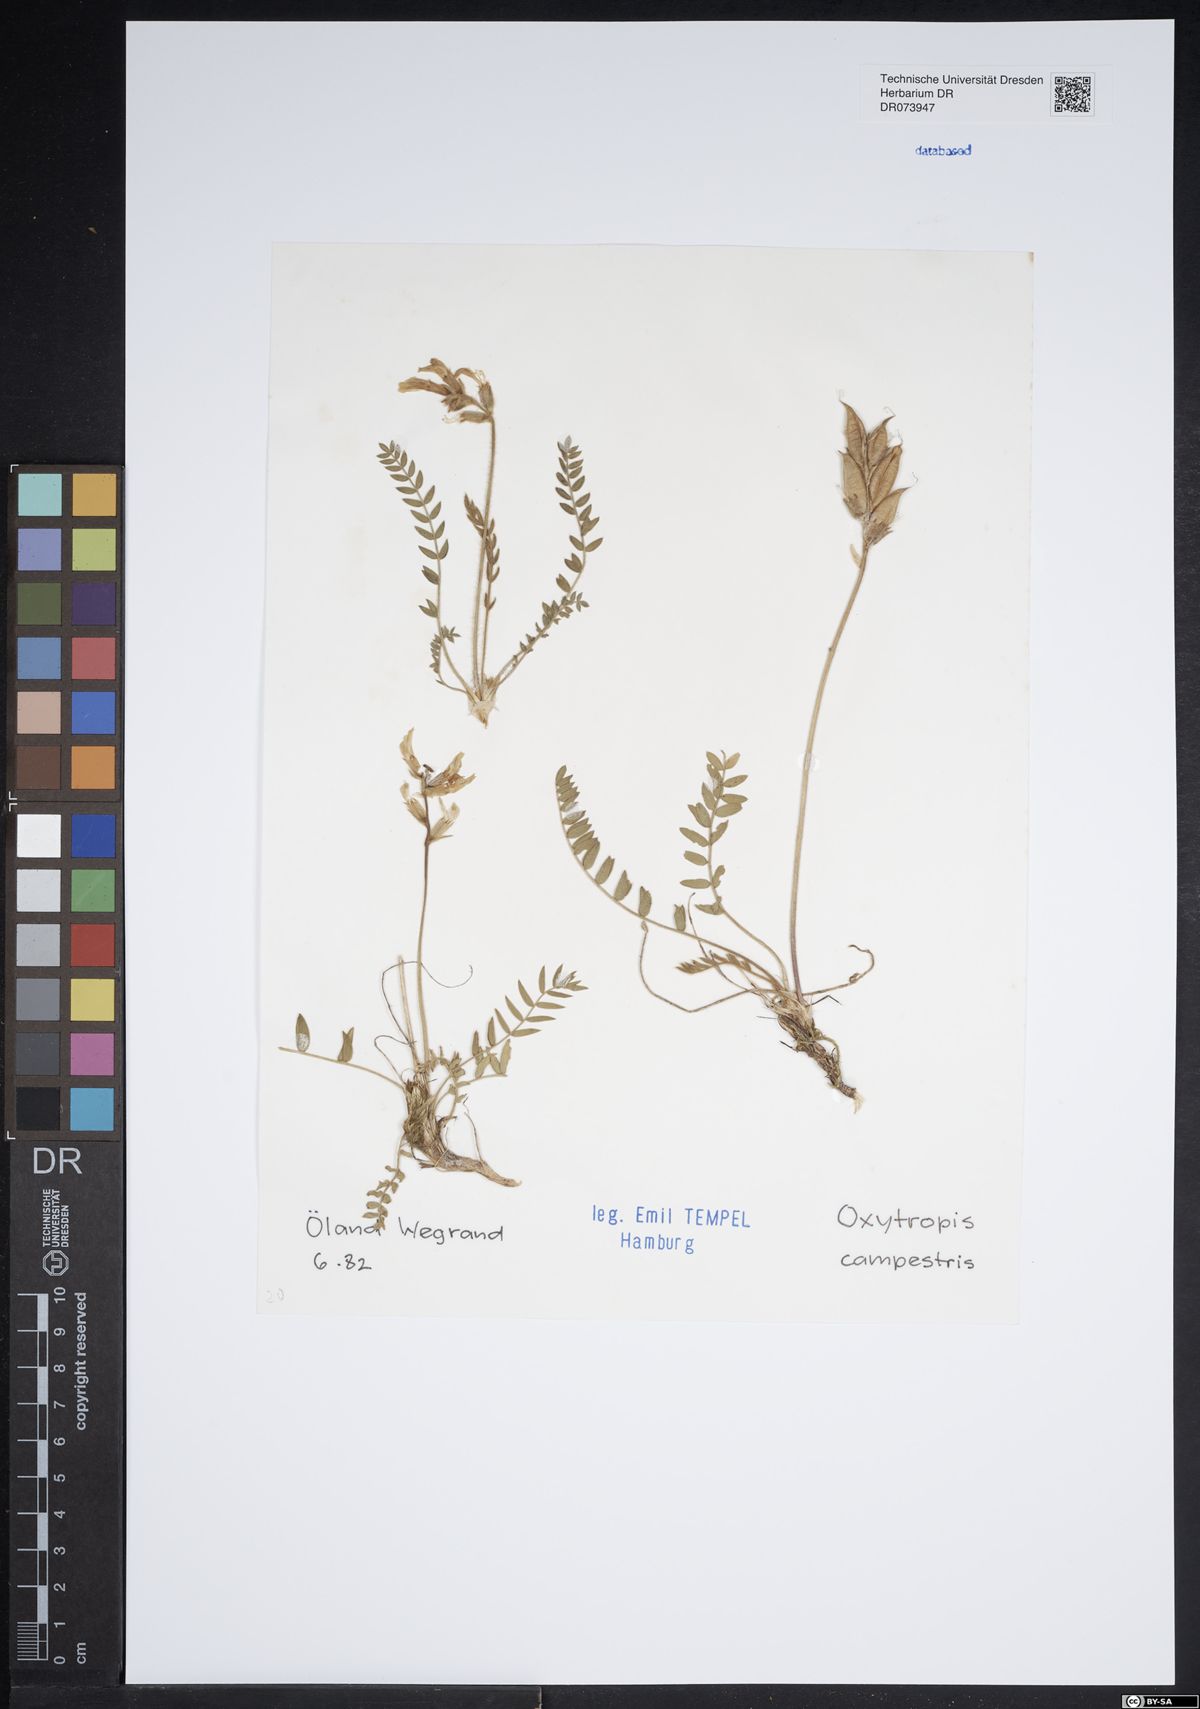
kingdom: Plantae
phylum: Tracheophyta
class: Magnoliopsida
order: Fabales
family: Fabaceae
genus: Oxytropis
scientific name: Oxytropis campestris
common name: Field locoweed
